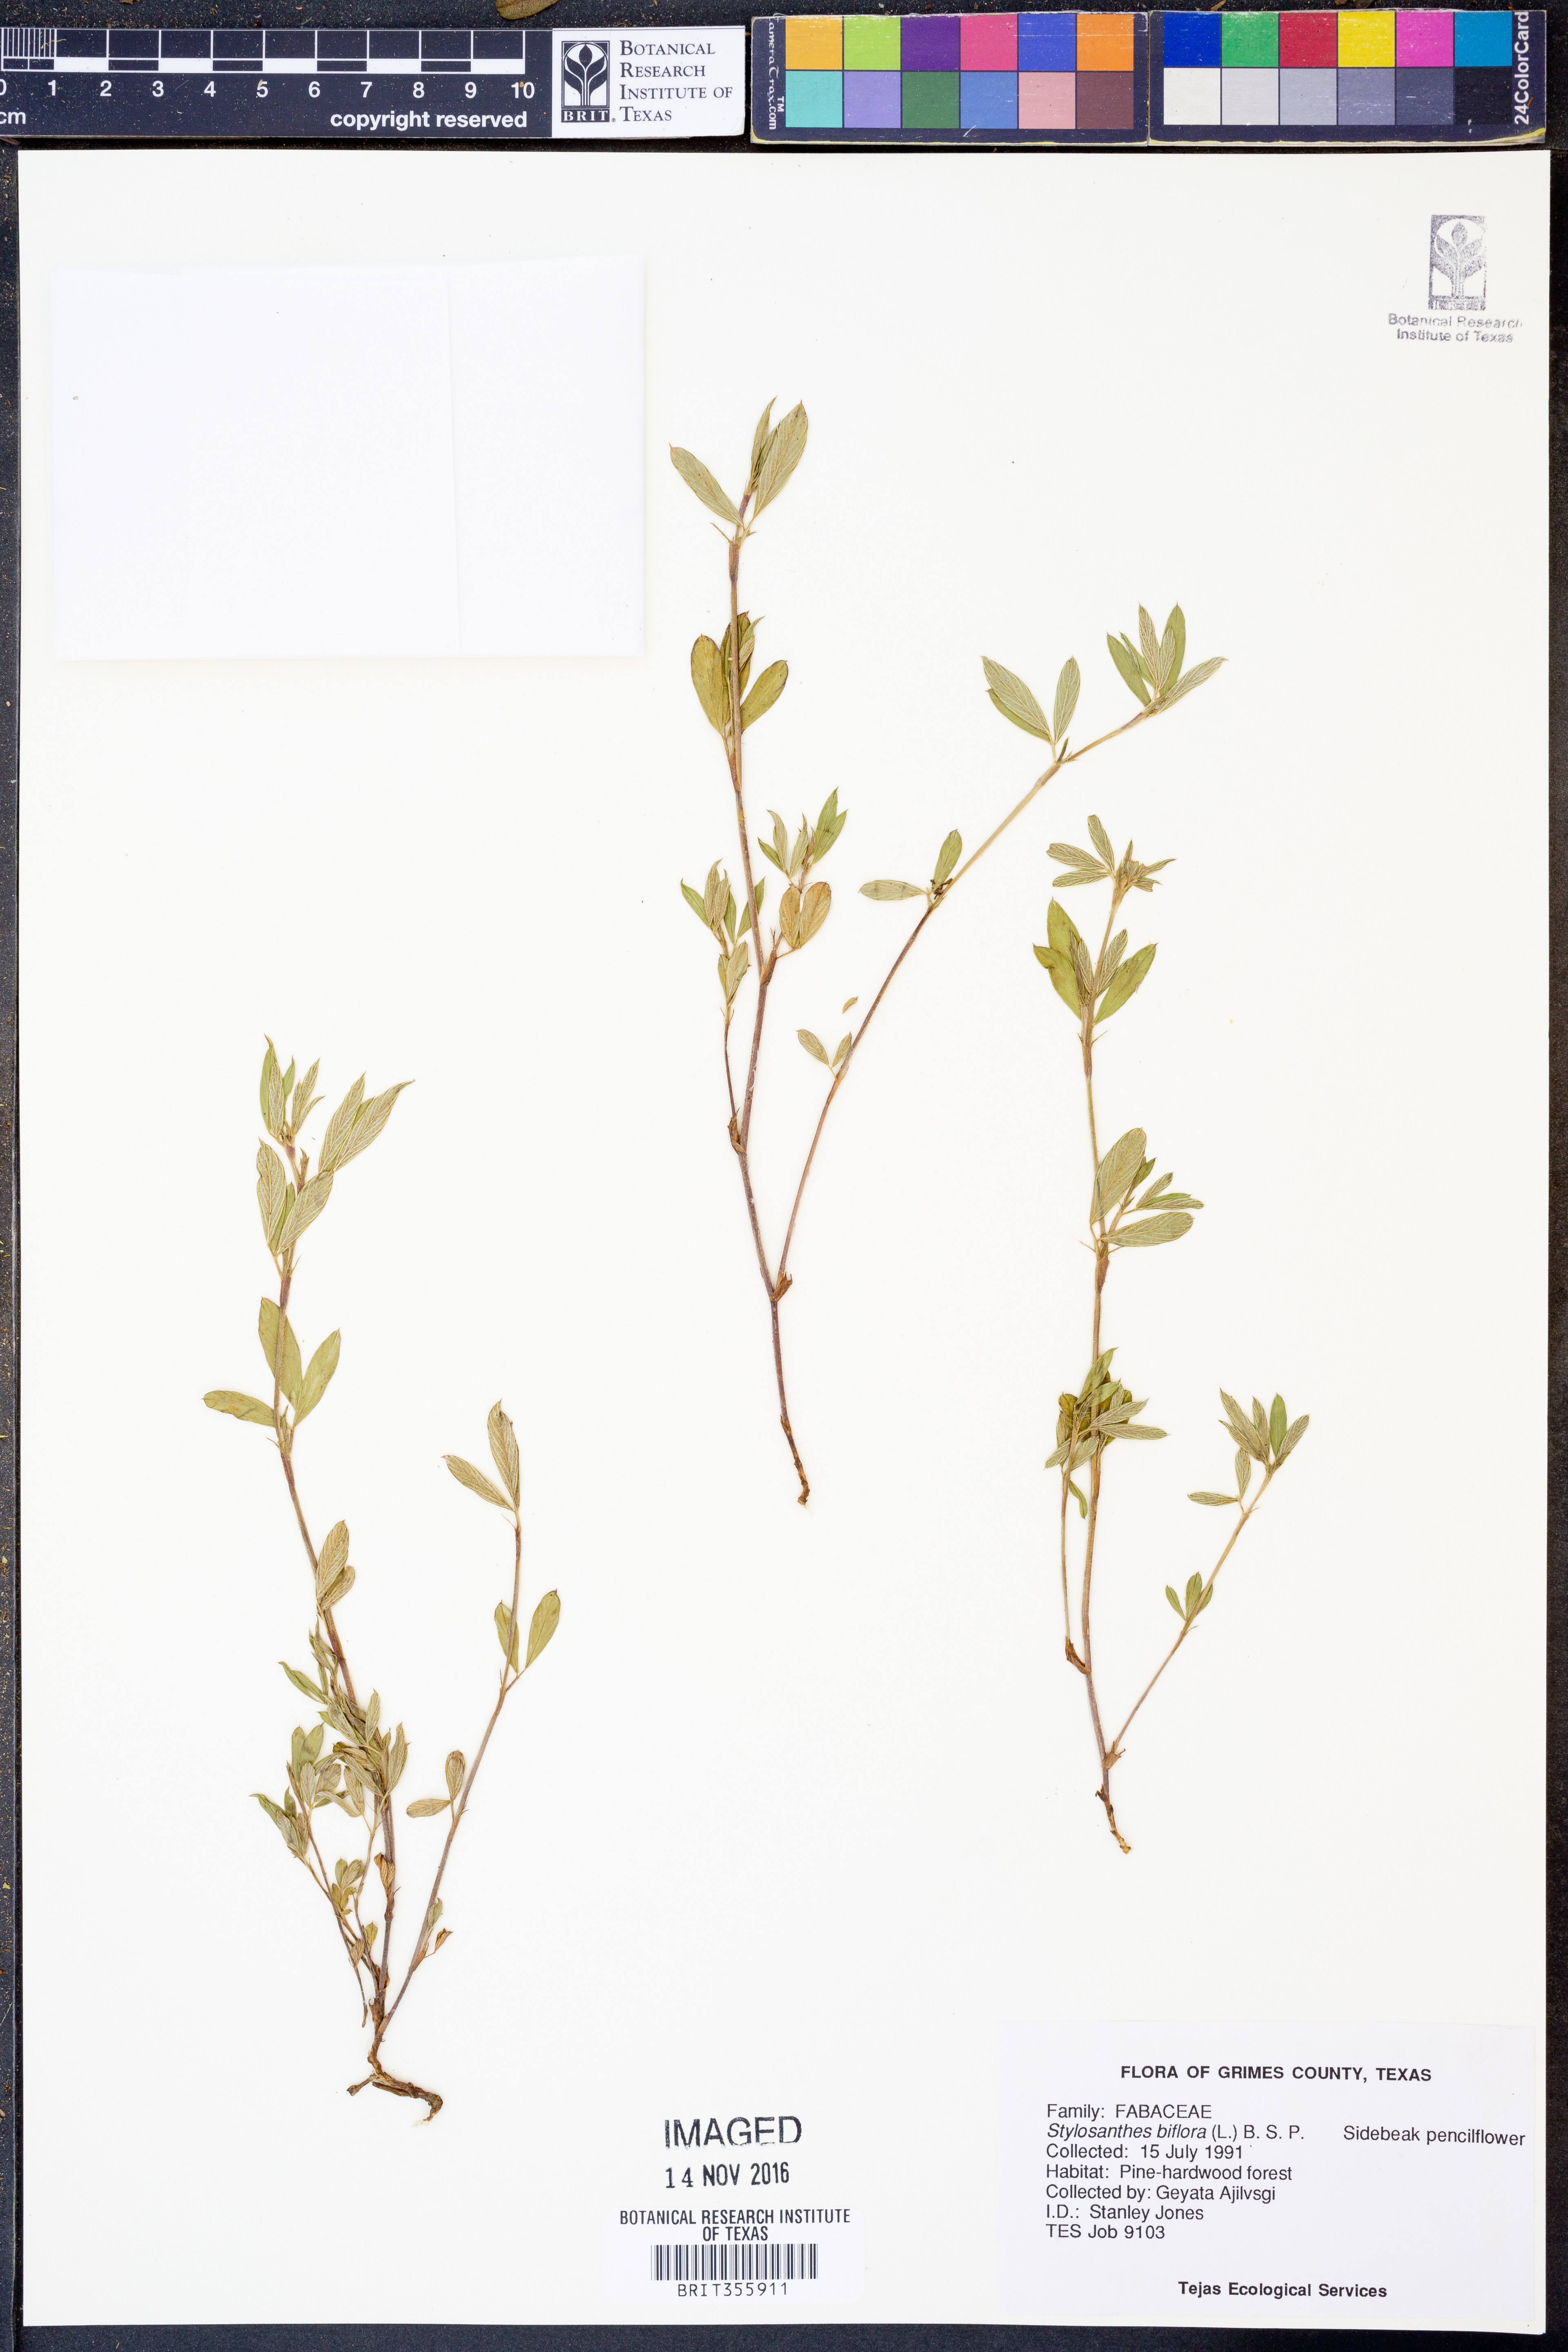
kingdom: Plantae
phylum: Tracheophyta
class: Magnoliopsida
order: Fabales
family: Fabaceae
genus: Stylosanthes
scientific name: Stylosanthes biflora
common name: Two-flower pencil-flower
